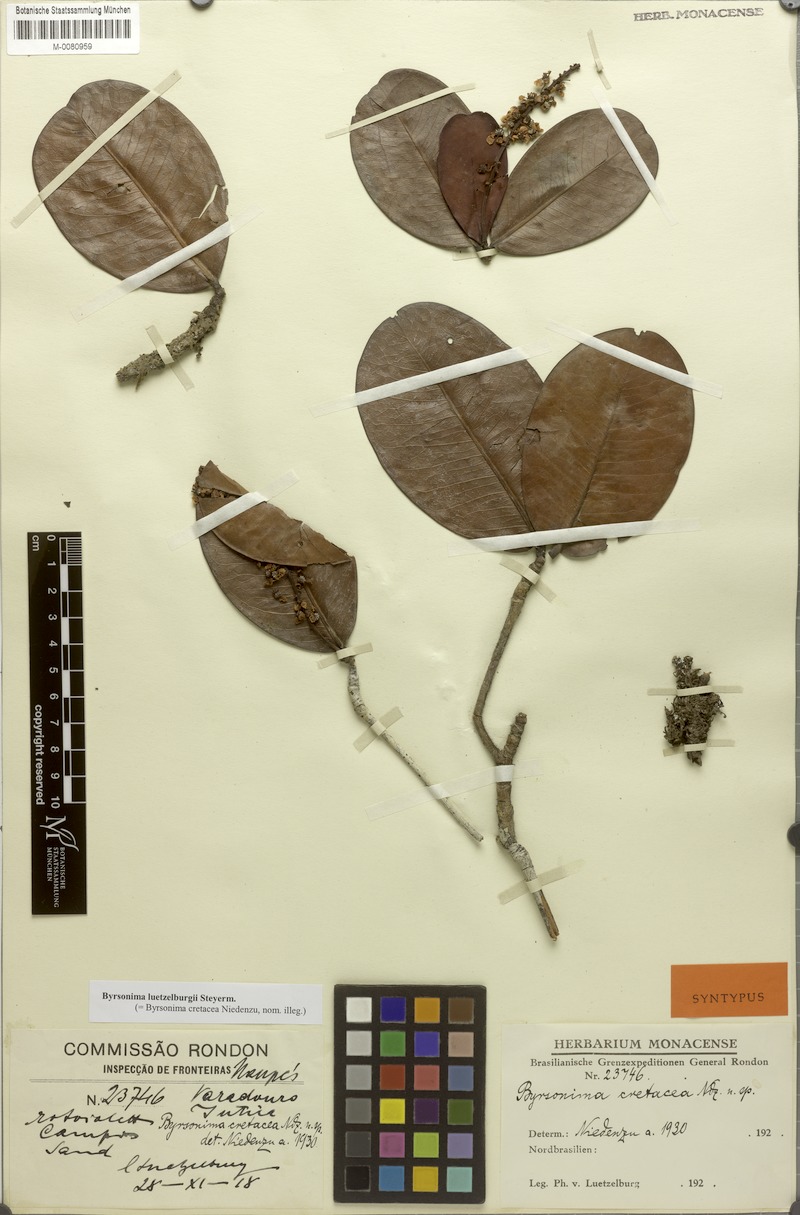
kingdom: Plantae
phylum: Tracheophyta
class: Magnoliopsida
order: Malpighiales
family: Malpighiaceae
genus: Byrsonima
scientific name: Byrsonima luetzelburgii
